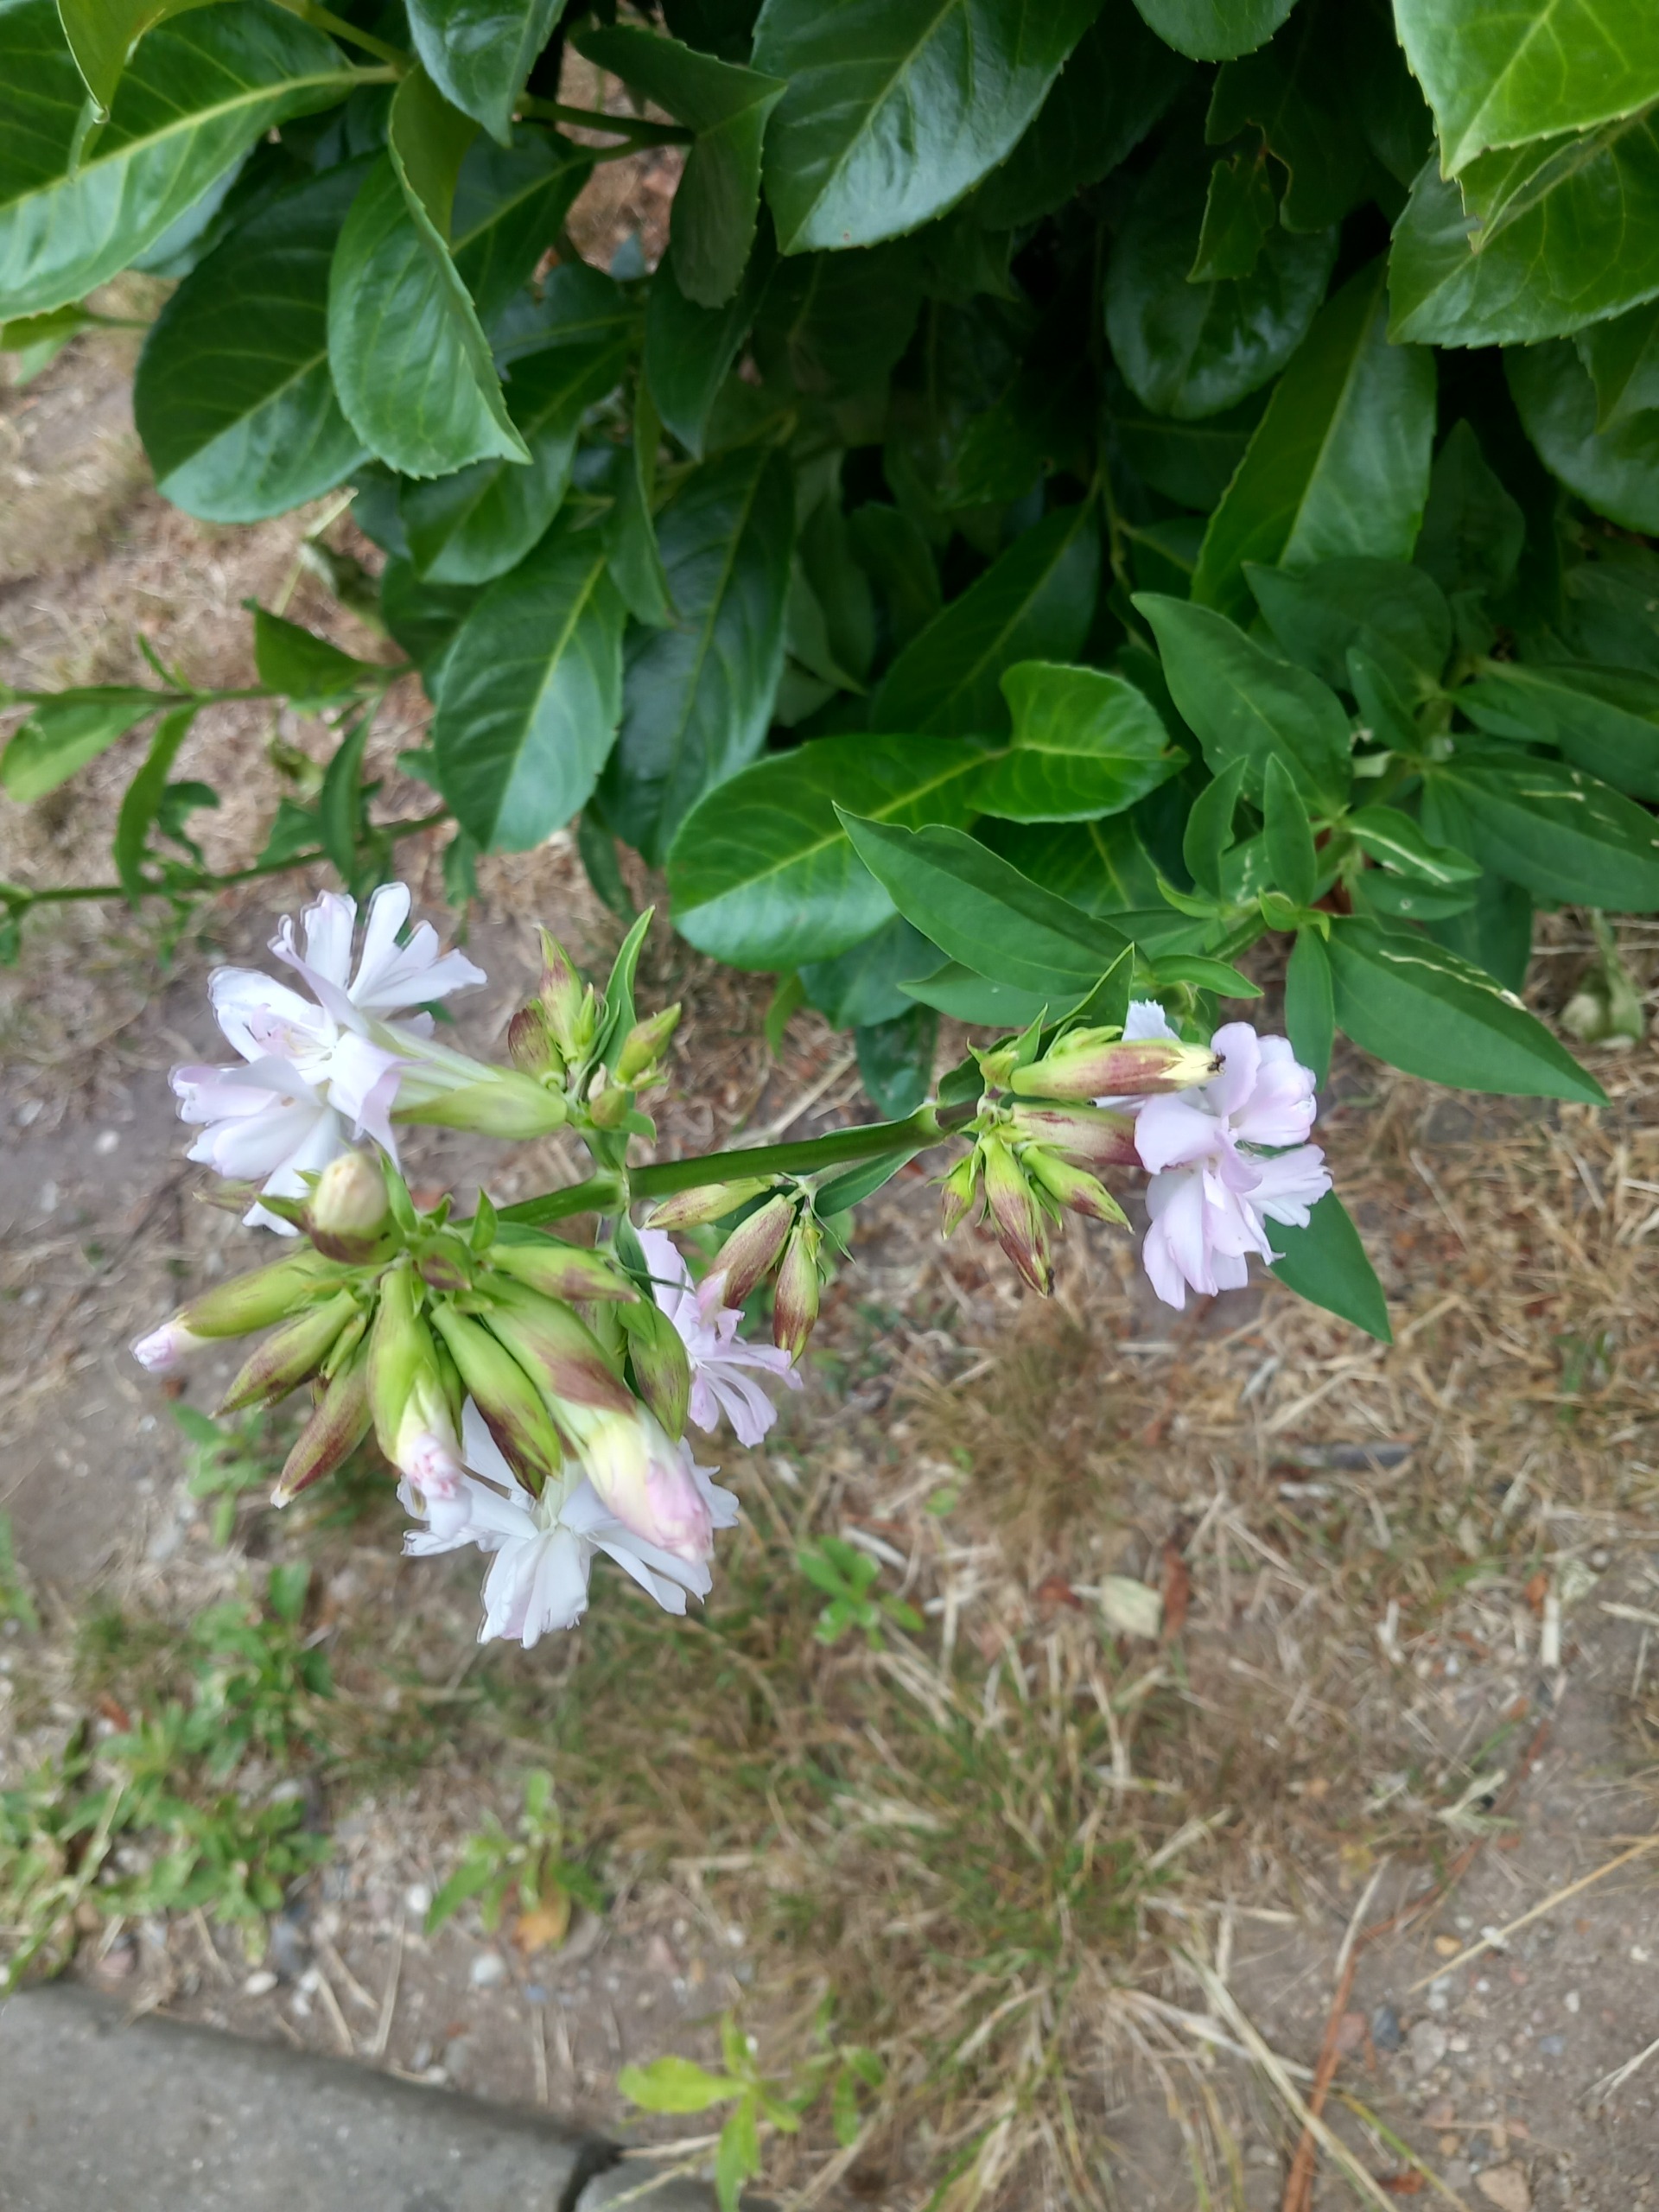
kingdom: Plantae
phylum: Tracheophyta
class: Magnoliopsida
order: Caryophyllales
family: Caryophyllaceae
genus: Saponaria
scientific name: Saponaria officinalis
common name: Sæbeurt
